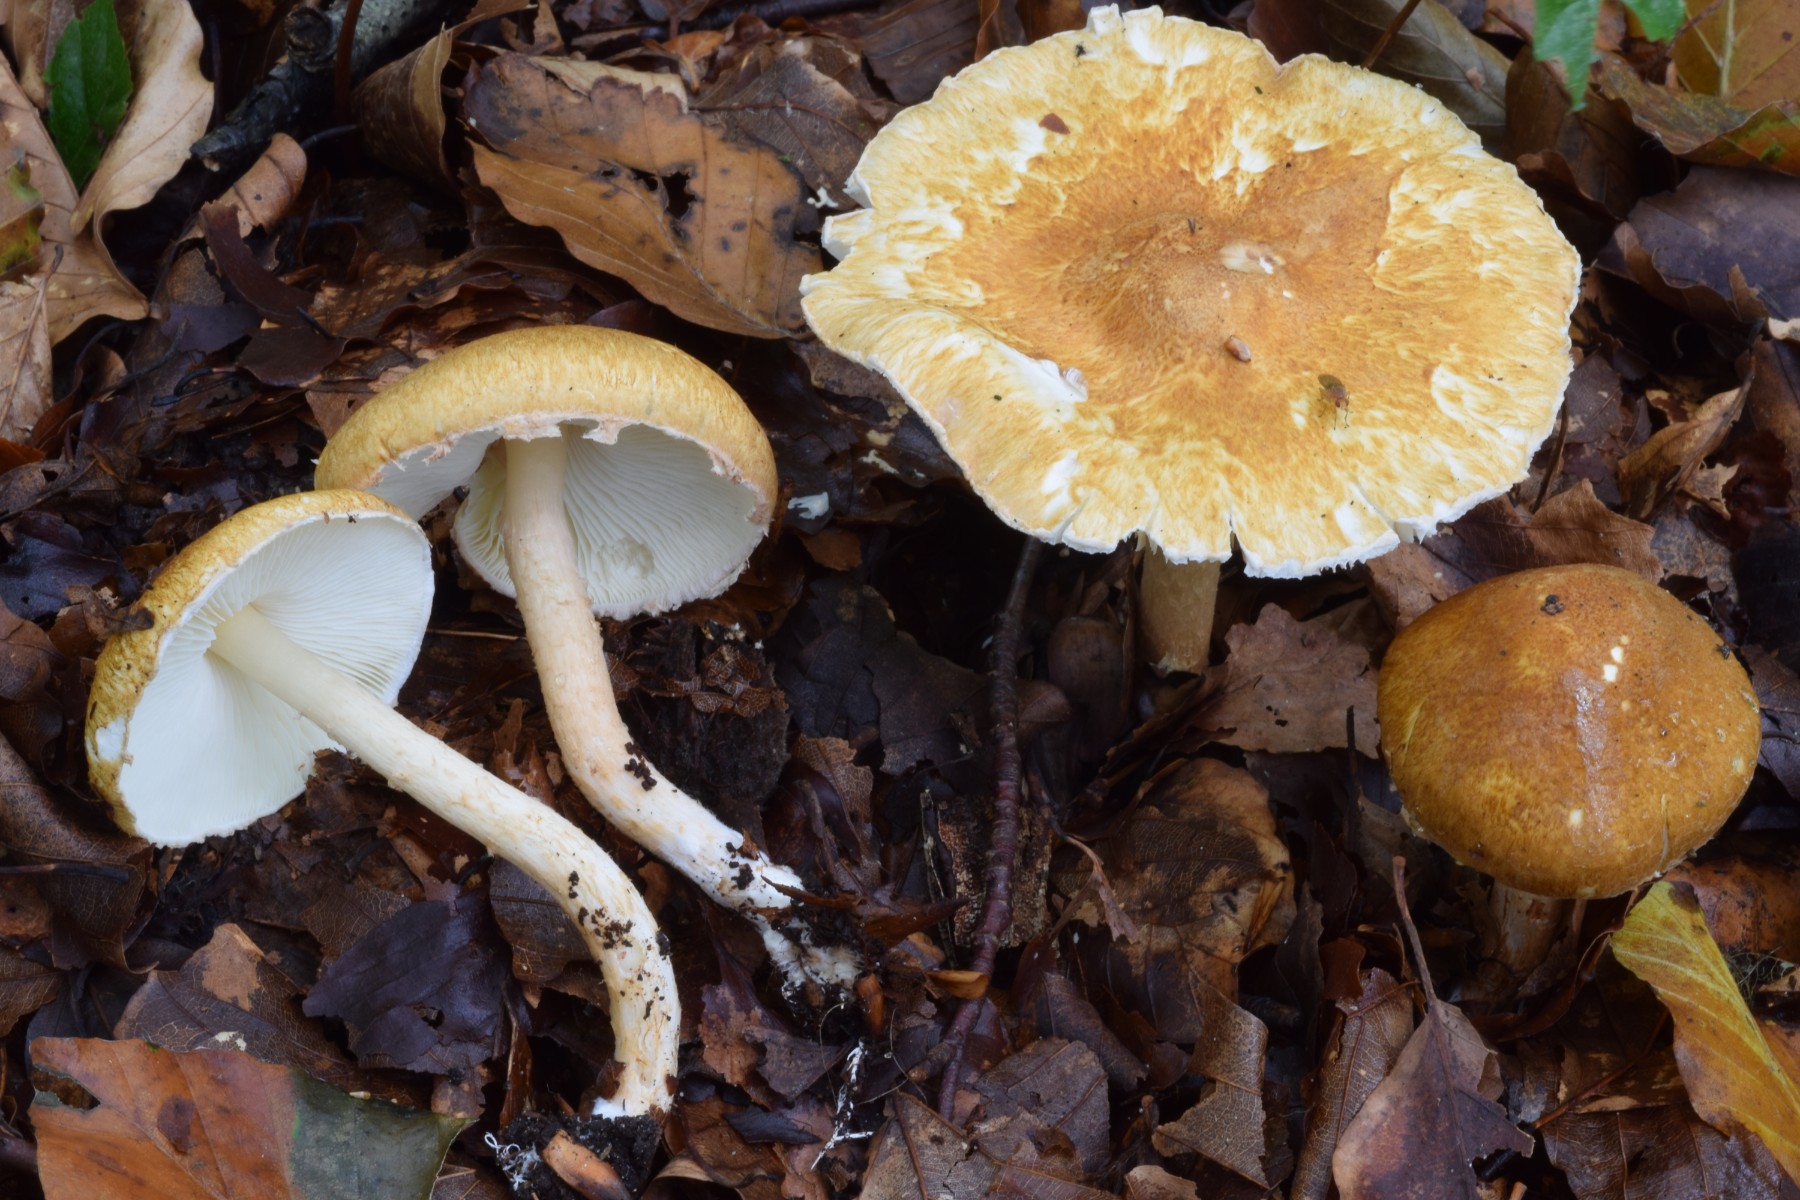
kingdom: Fungi
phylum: Basidiomycota
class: Agaricomycetes
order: Agaricales
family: Agaricaceae
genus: Leucocoprinus
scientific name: Leucocoprinus straminellus
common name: rustbrun parasolhat
